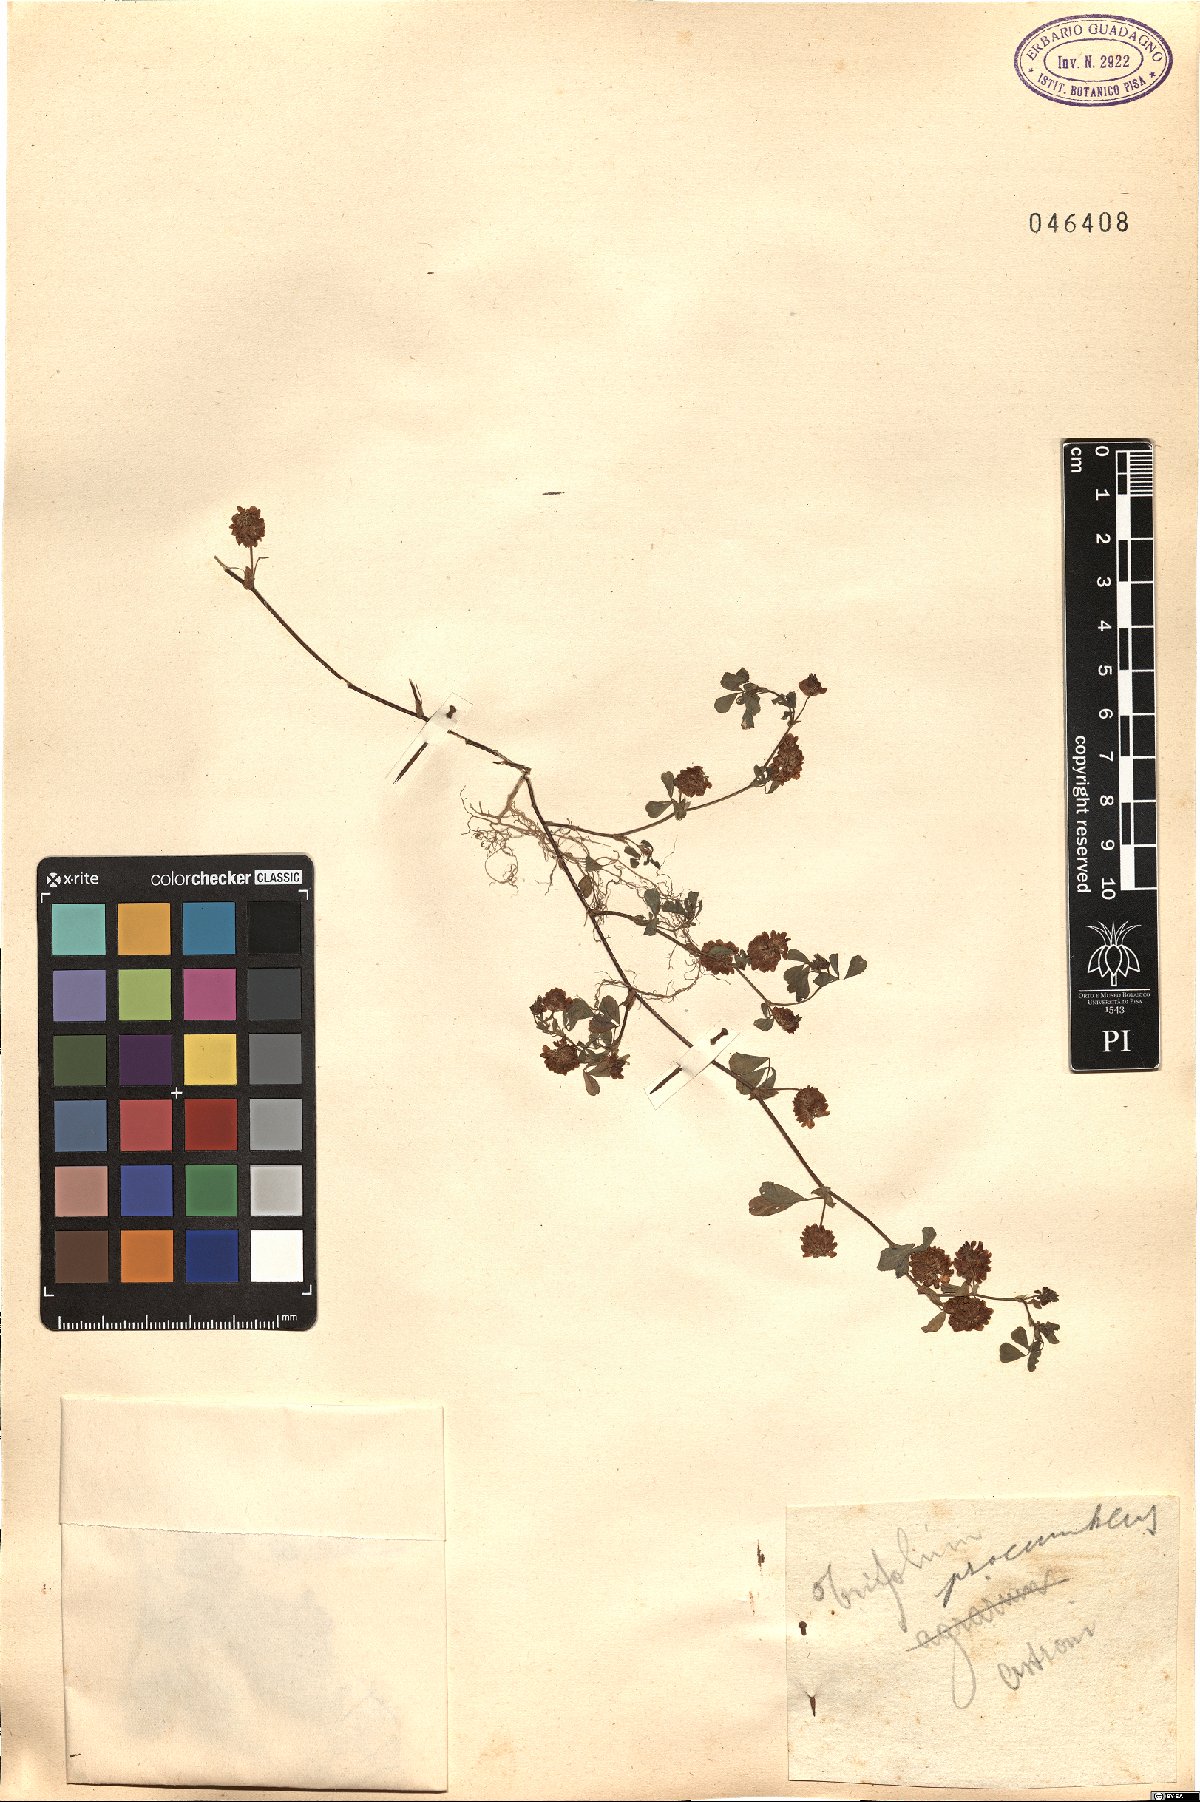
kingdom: Plantae
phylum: Tracheophyta
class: Magnoliopsida
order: Fabales
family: Fabaceae
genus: Trifolium
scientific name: Trifolium campestre
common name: Field clover
